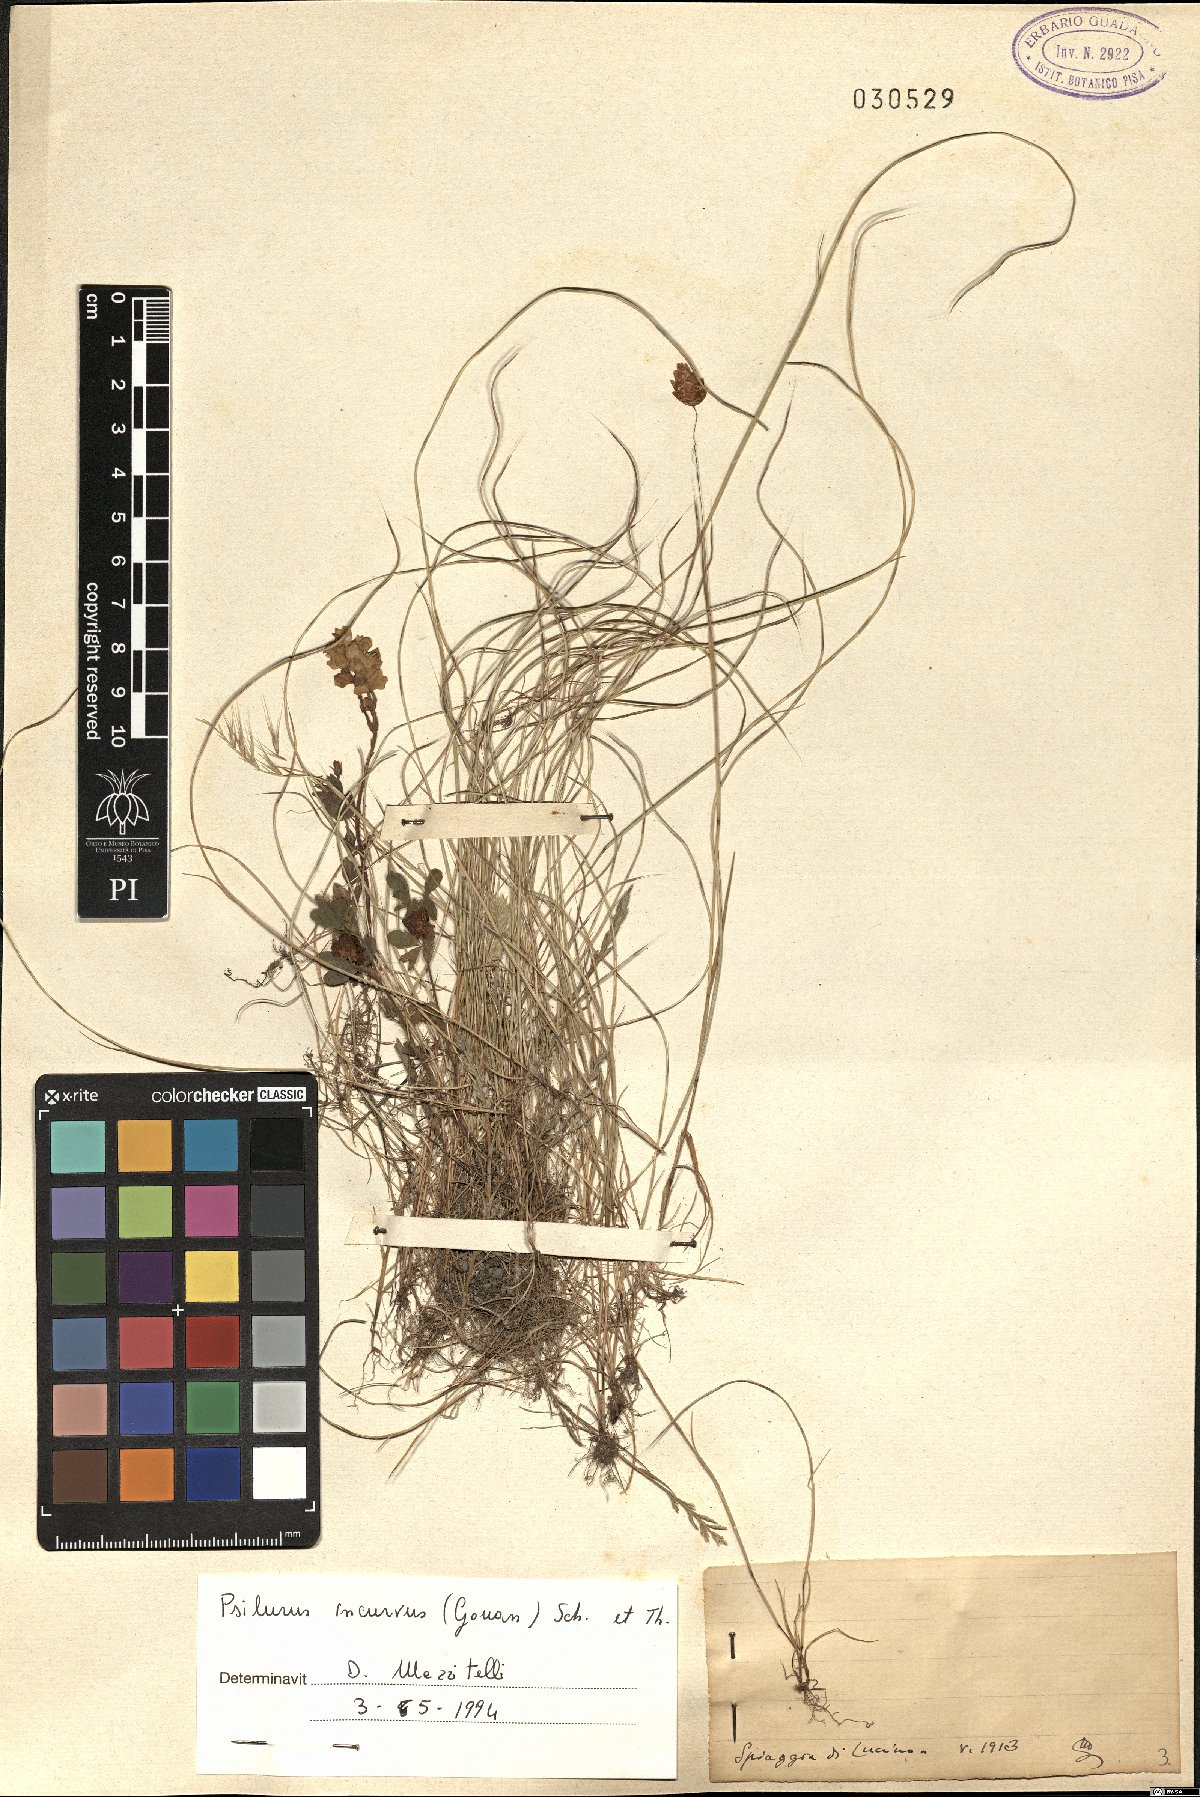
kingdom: Plantae
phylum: Tracheophyta
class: Liliopsida
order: Poales
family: Poaceae
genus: Festuca
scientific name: Festuca incurva
